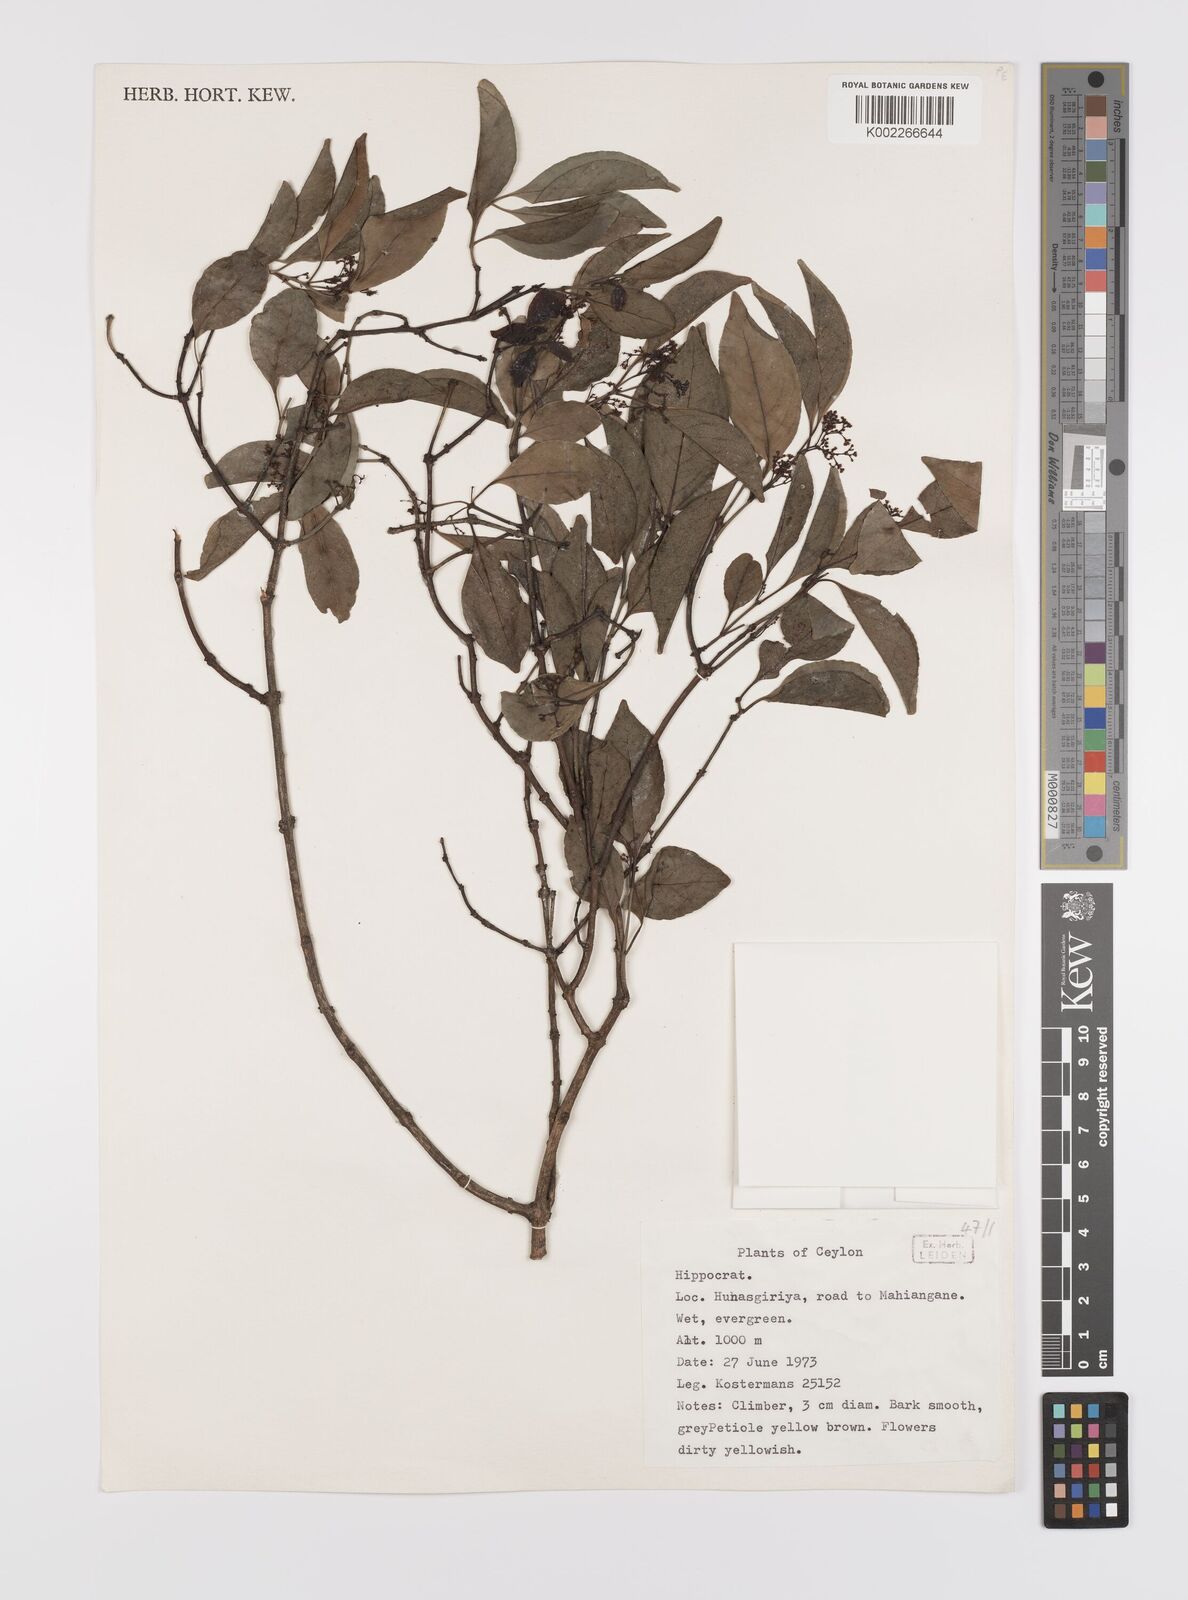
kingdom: Plantae
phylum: Tracheophyta
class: Magnoliopsida
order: Celastrales
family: Celastraceae
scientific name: Celastraceae
